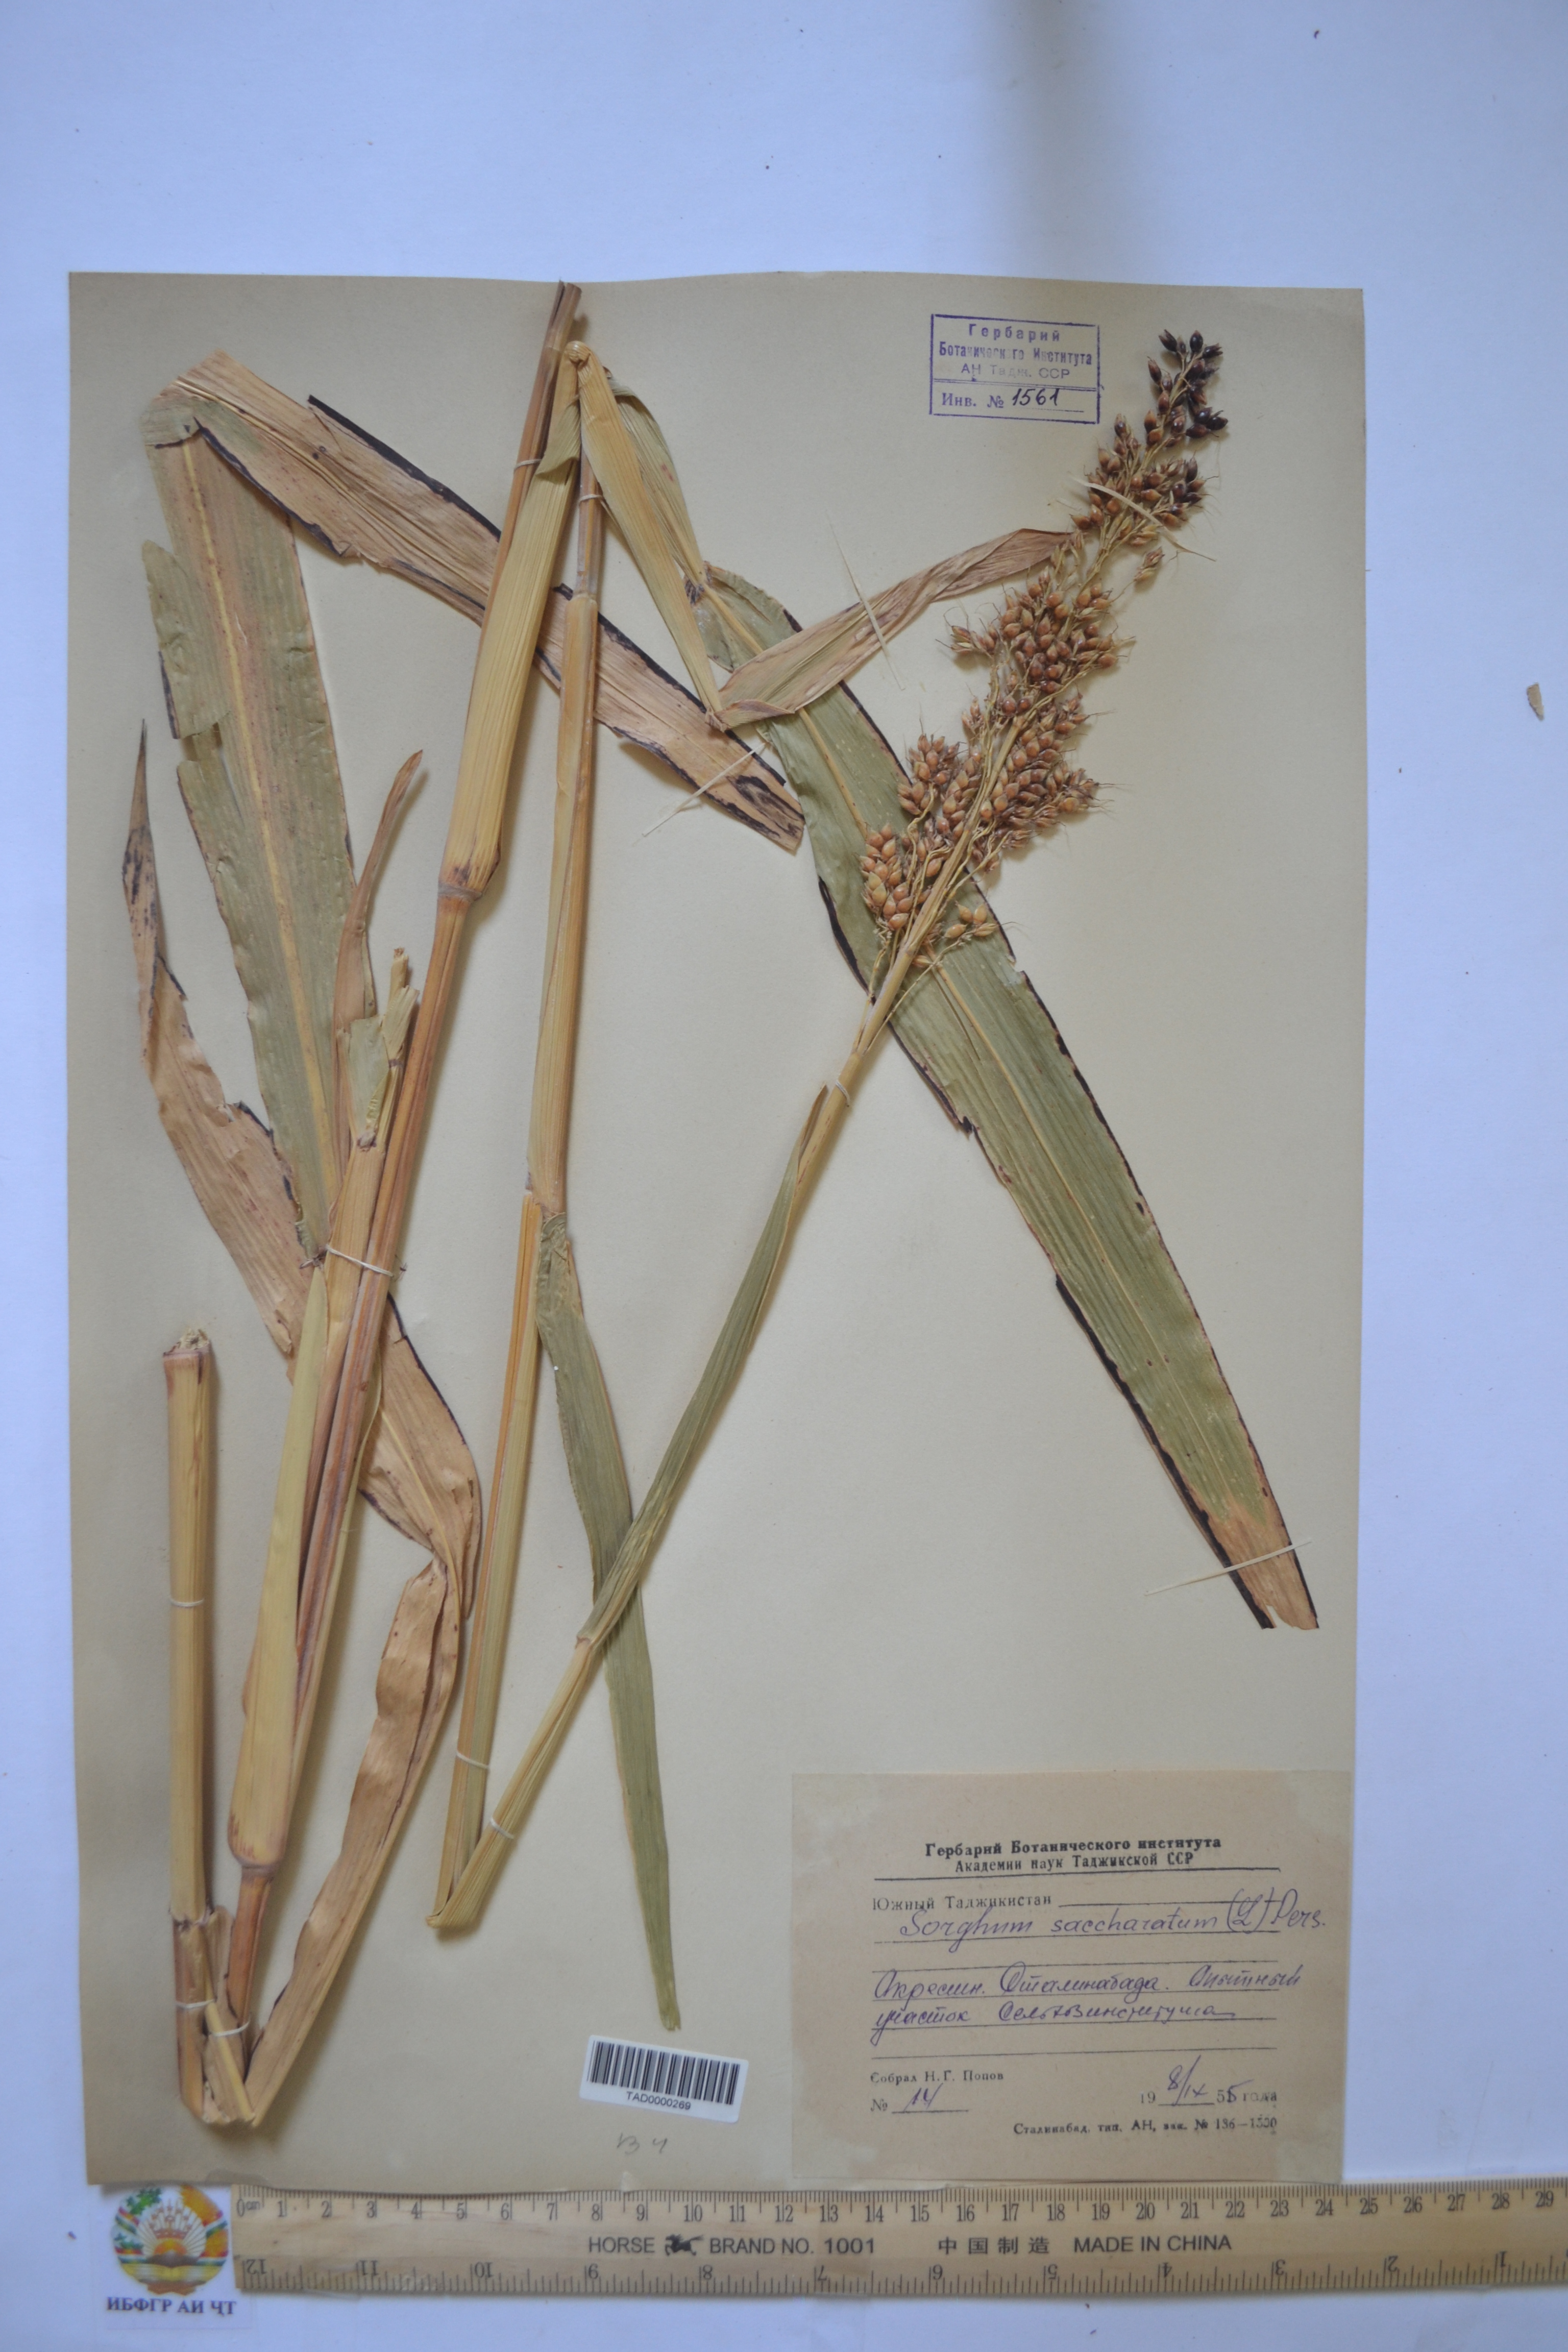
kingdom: Plantae
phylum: Tracheophyta
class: Liliopsida
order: Poales
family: Poaceae
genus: Sorghum
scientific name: Sorghum bicolor
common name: Sorghum
